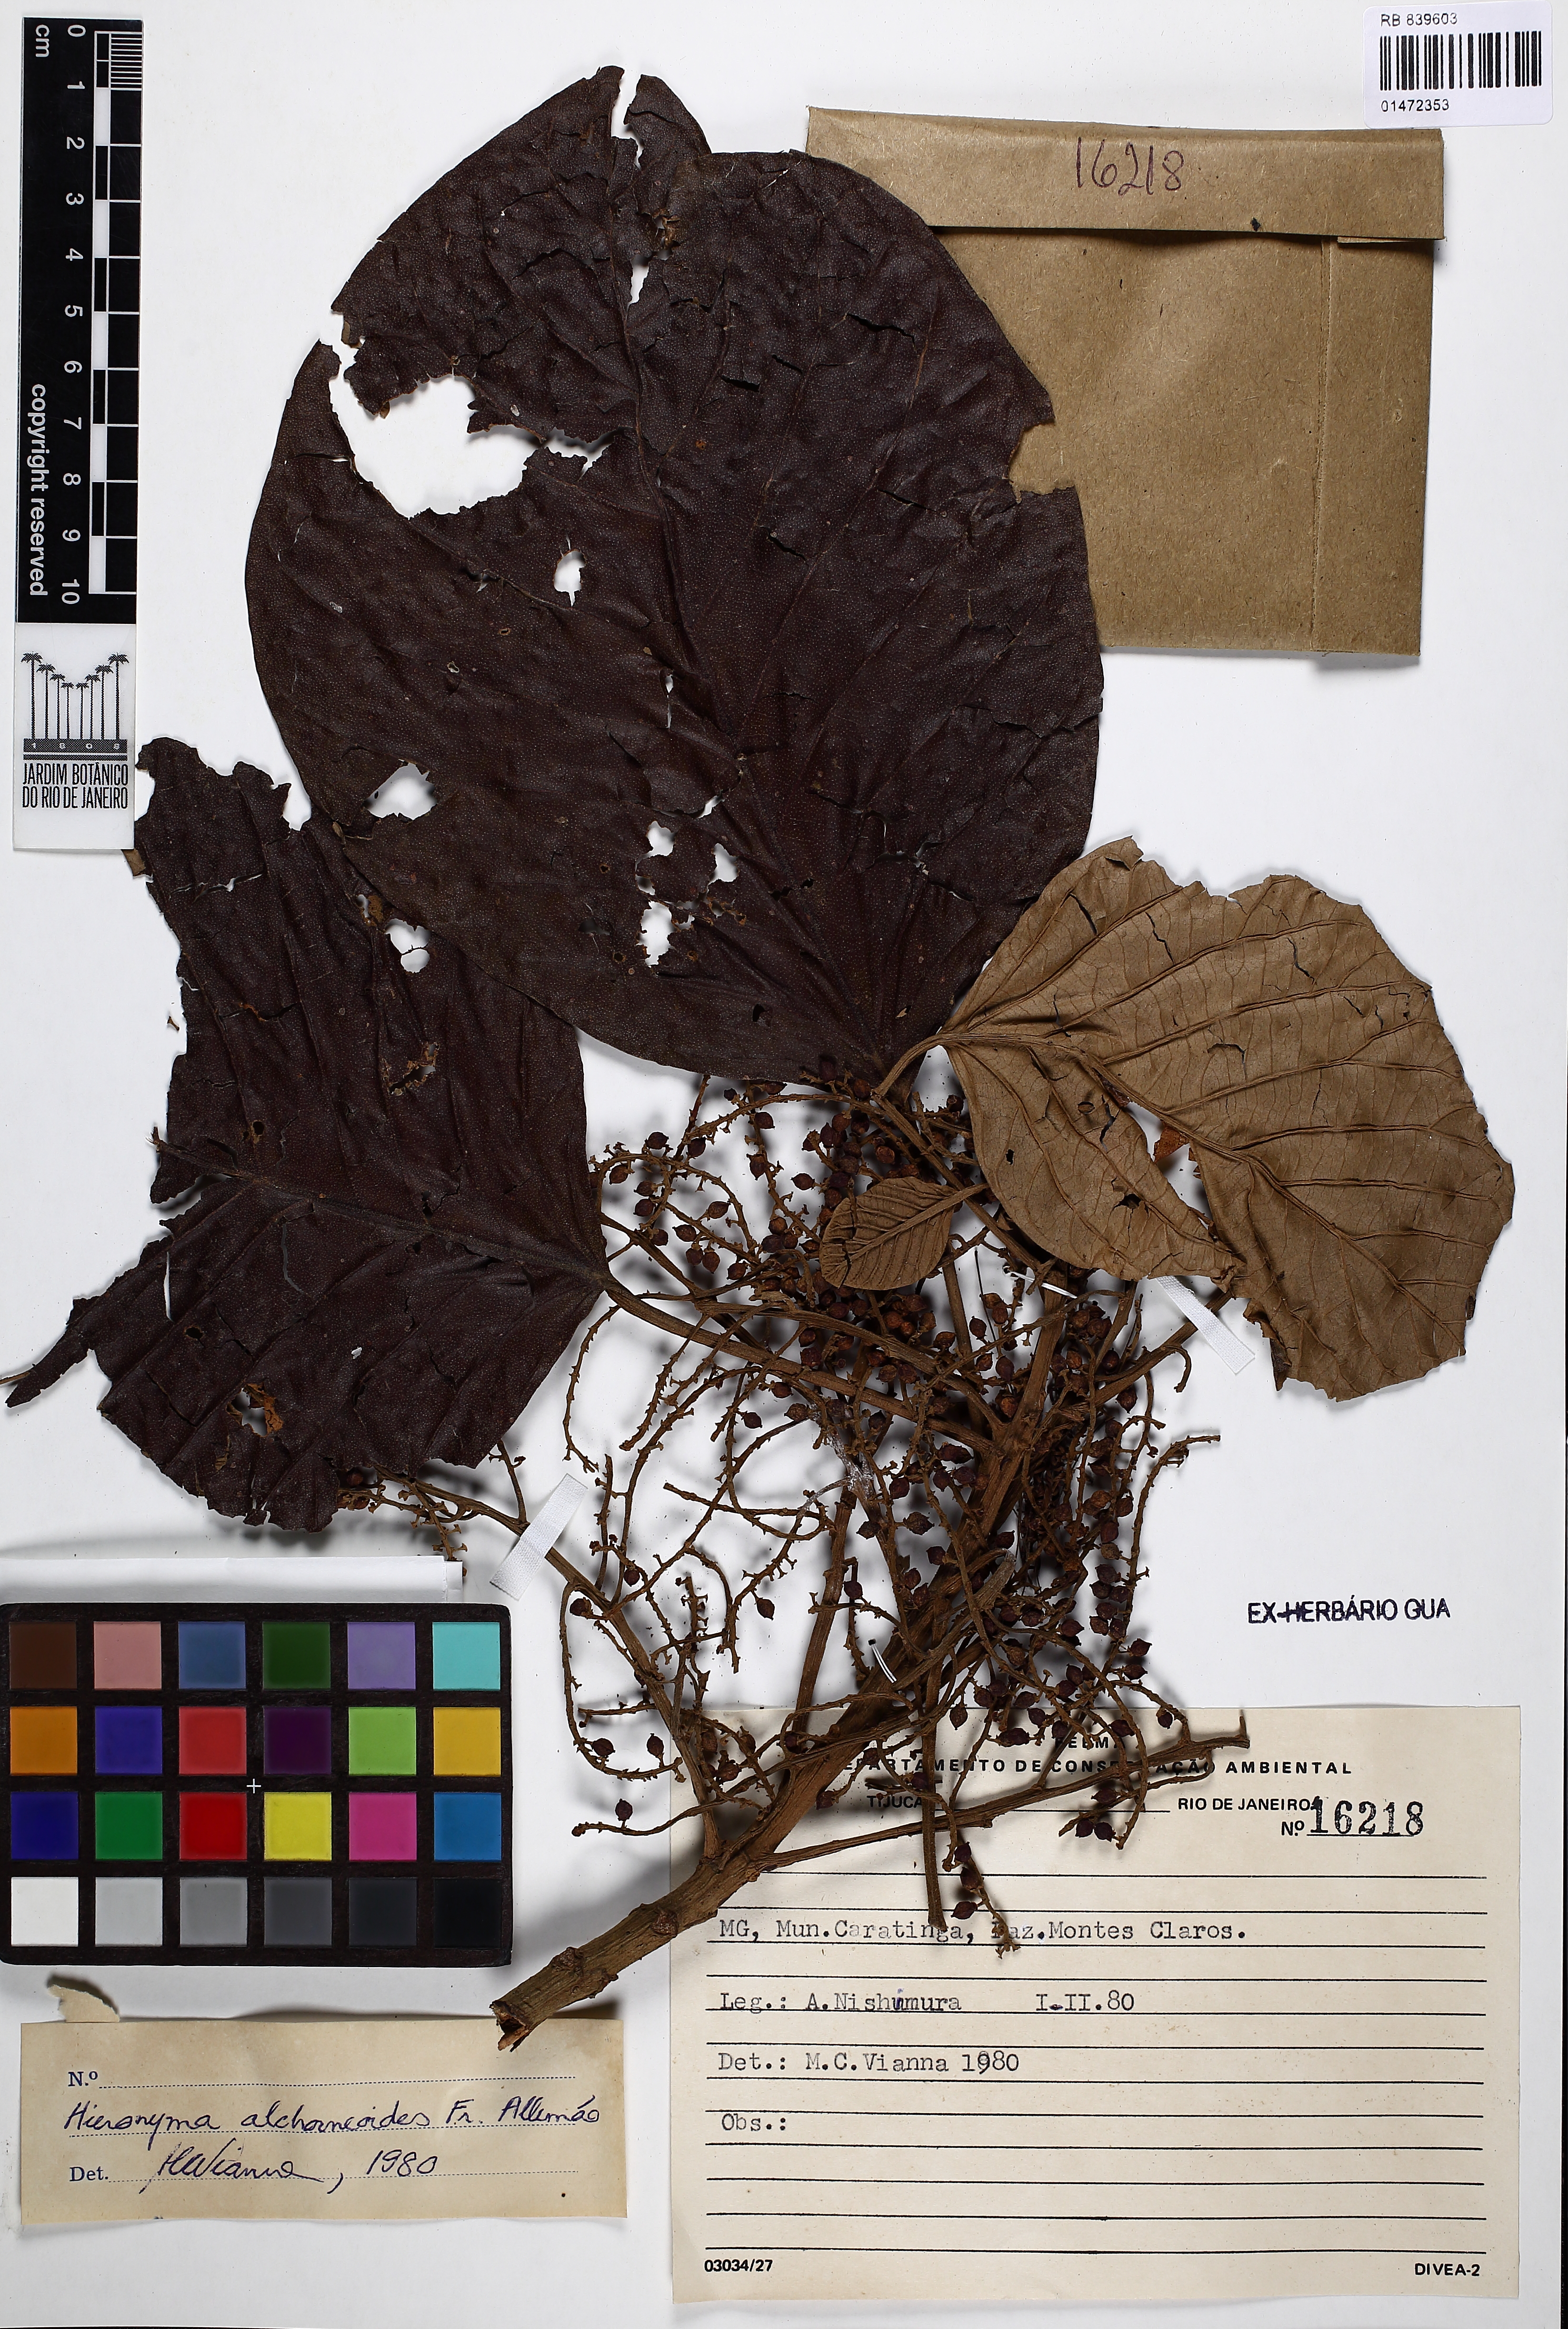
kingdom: Plantae
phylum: Tracheophyta
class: Magnoliopsida
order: Malpighiales
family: Phyllanthaceae
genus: Hieronyma
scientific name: Hieronyma alchorneoides
